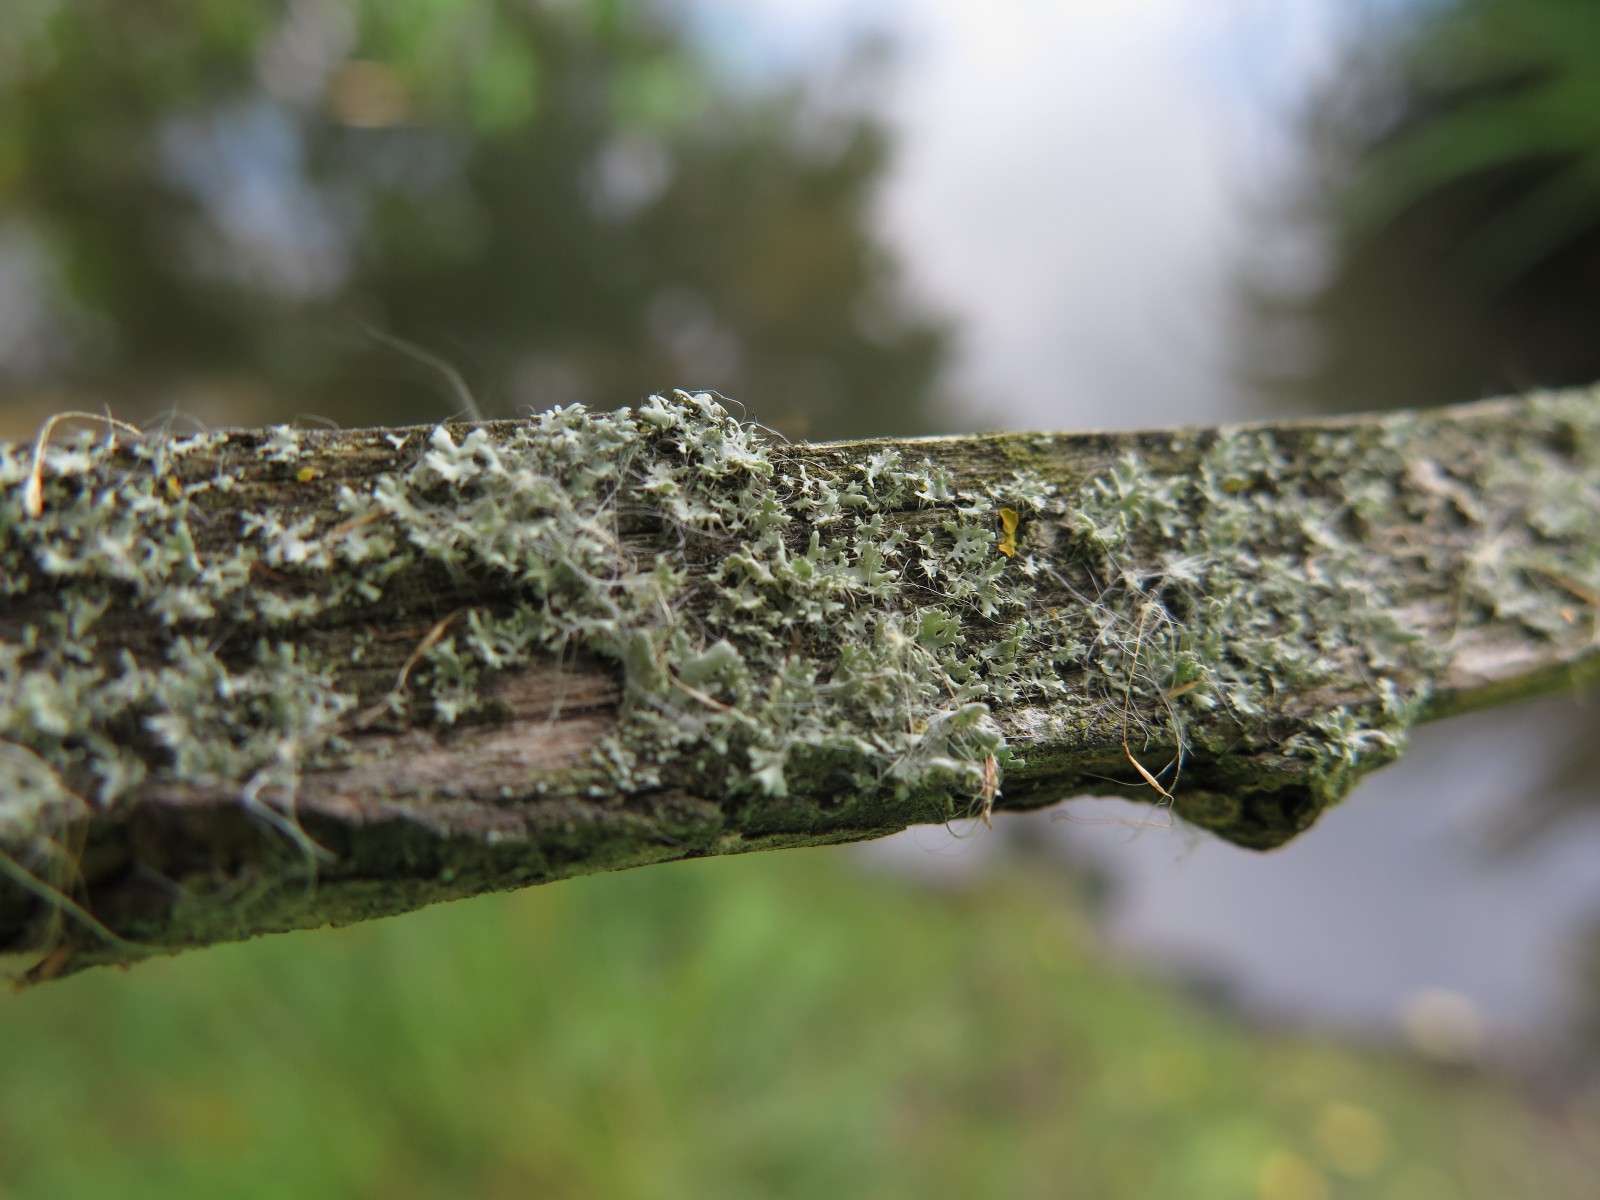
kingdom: Fungi
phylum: Ascomycota
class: Lecanoromycetes
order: Caliciales
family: Physciaceae
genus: Physcia
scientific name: Physcia tenella
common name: spæd rosetlav
